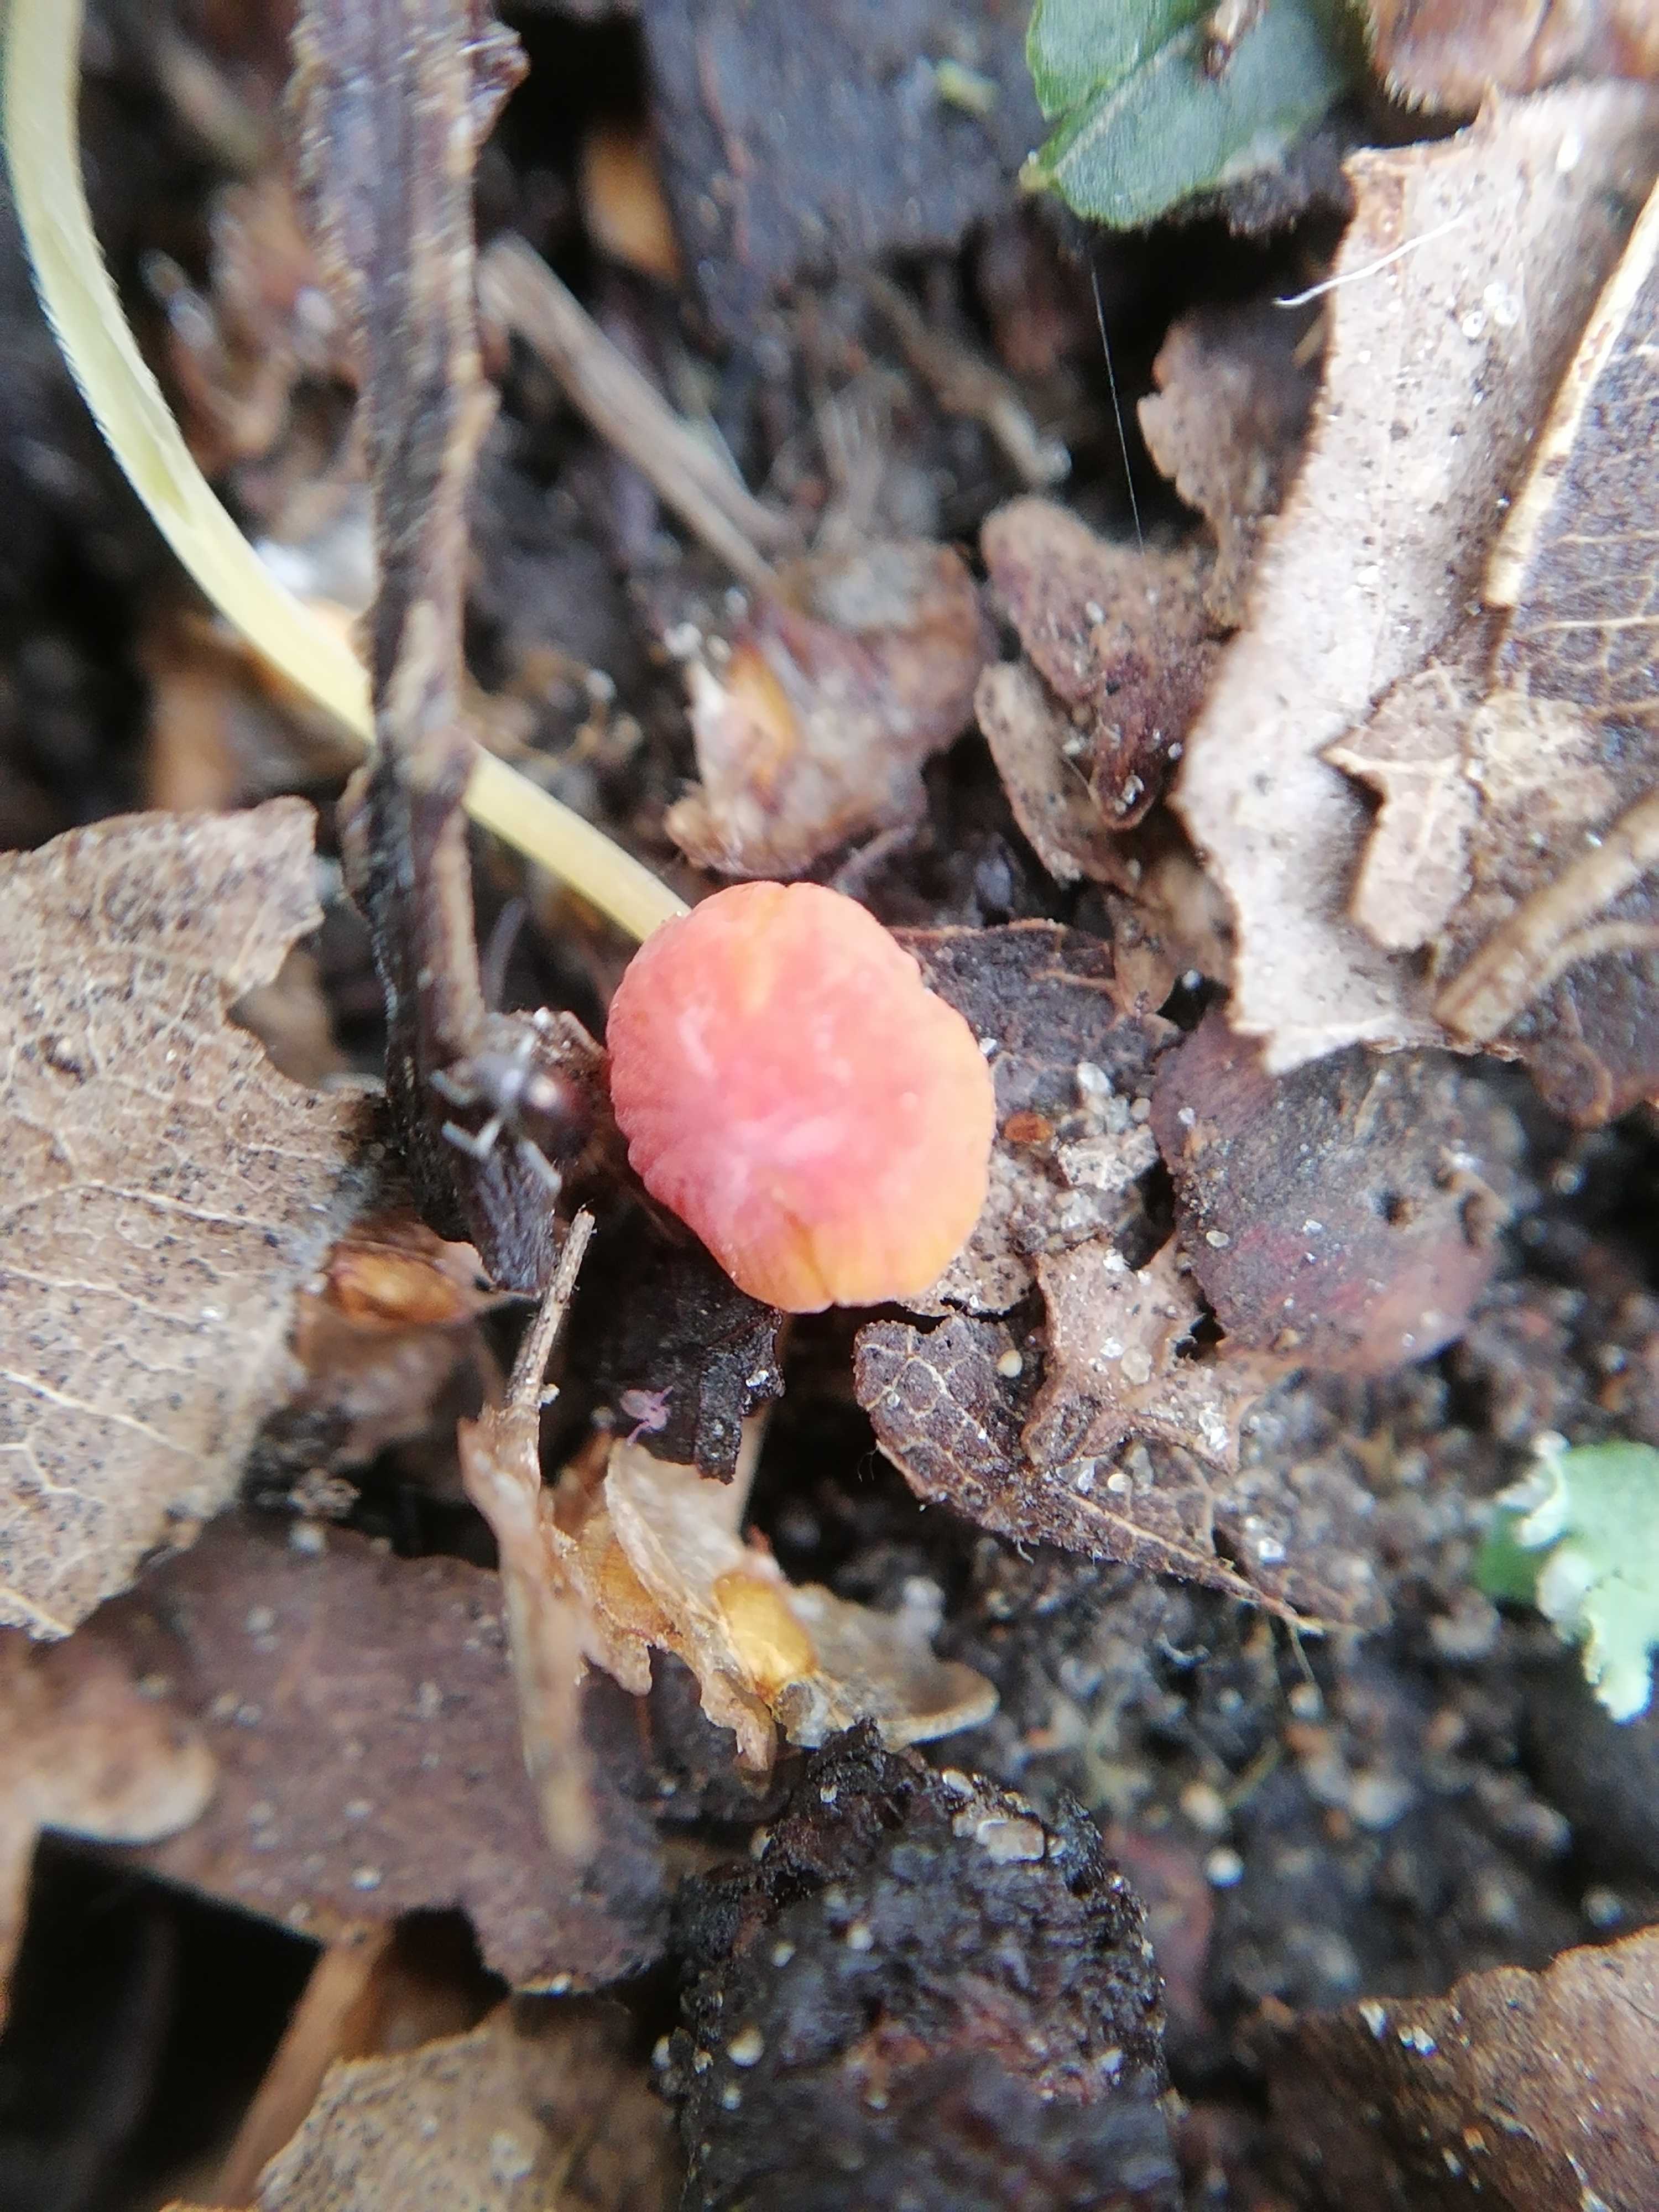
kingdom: Fungi
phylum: Basidiomycota
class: Agaricomycetes
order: Agaricales
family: Mycenaceae
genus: Mycena
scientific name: Mycena acicula
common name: orange huesvamp
